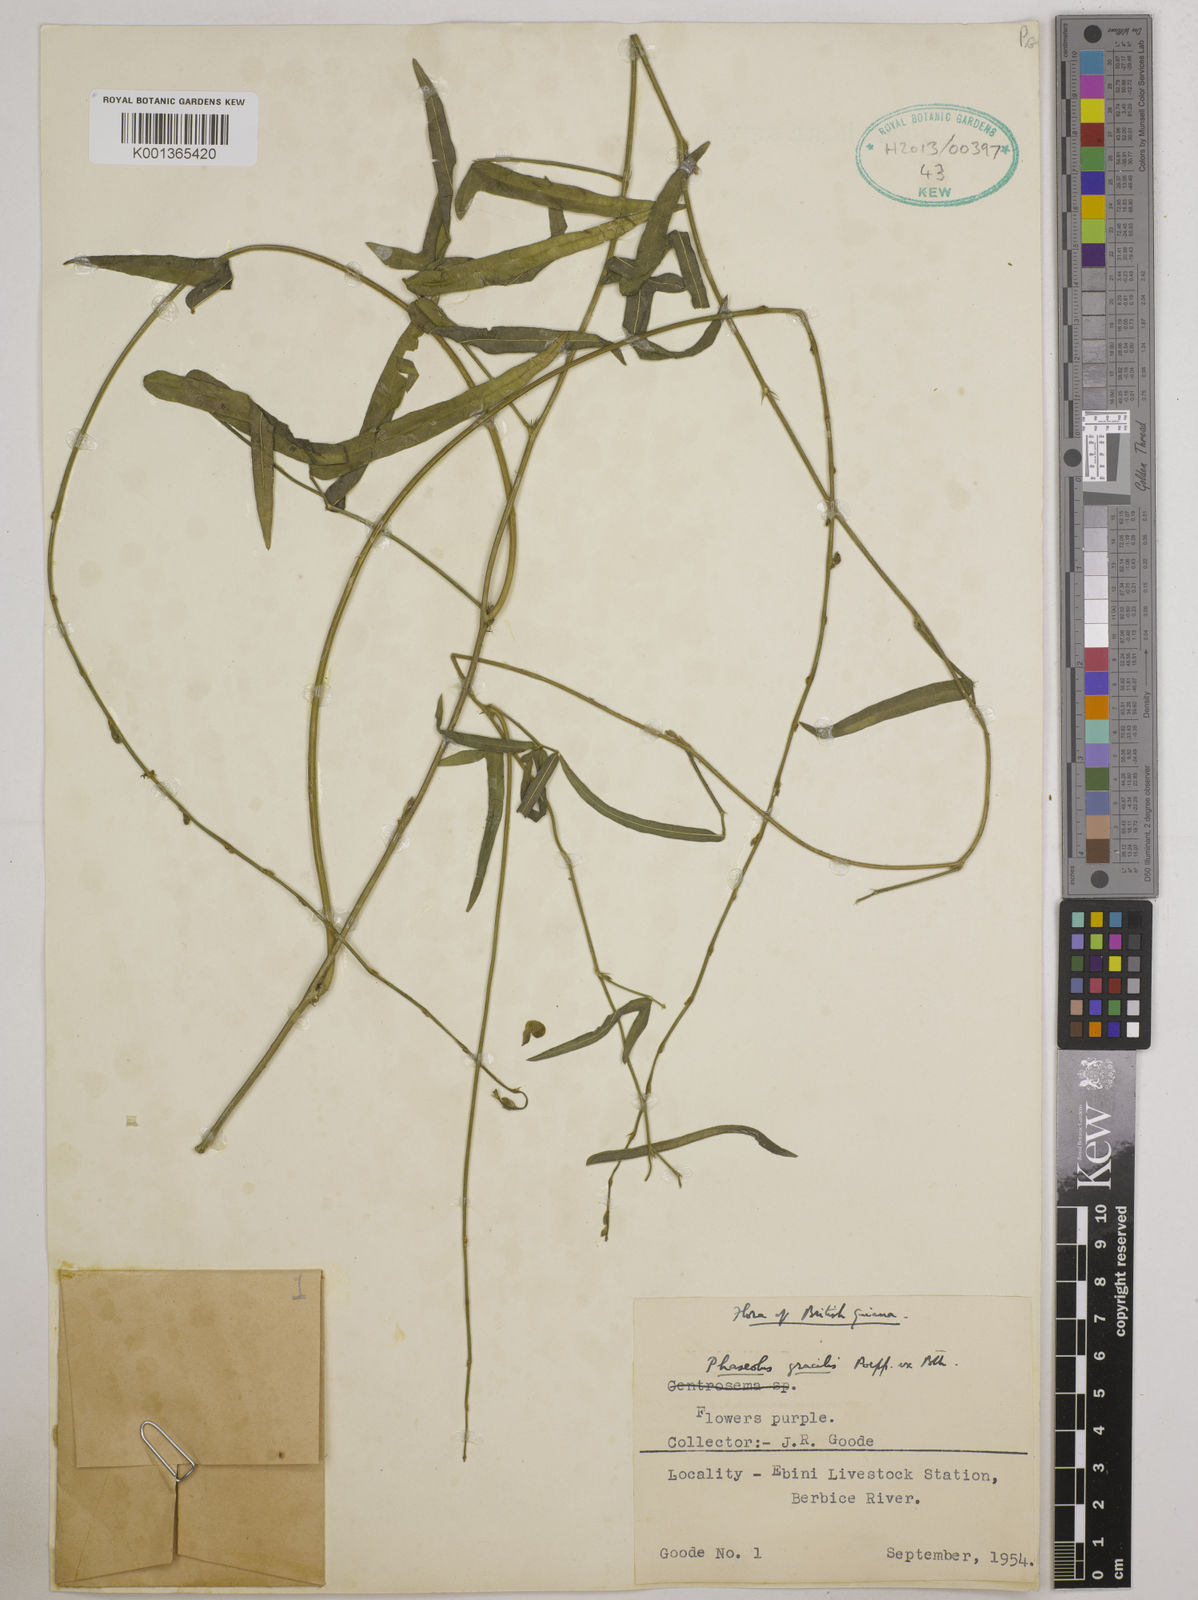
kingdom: Plantae
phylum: Tracheophyta
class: Magnoliopsida
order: Fabales
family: Fabaceae
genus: Macroptilium
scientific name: Macroptilium gracile
